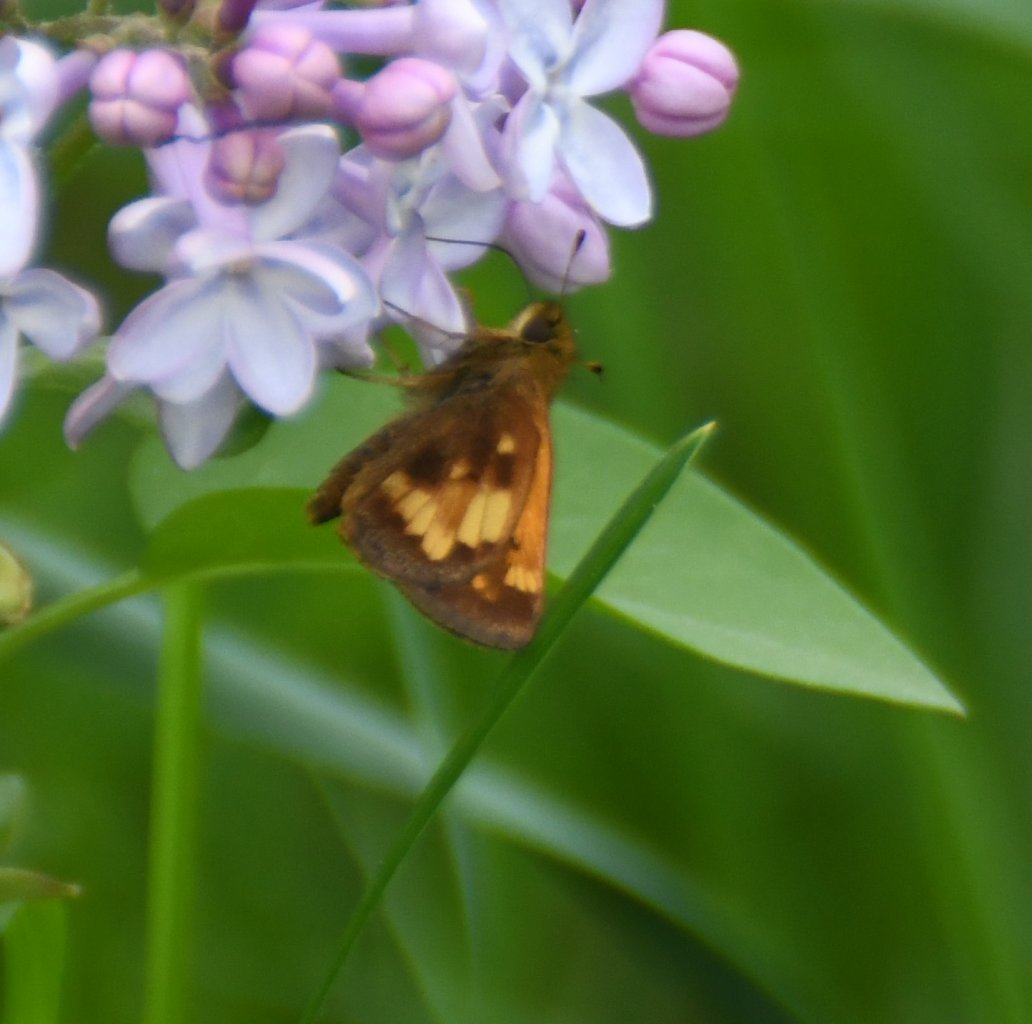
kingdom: Animalia
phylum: Arthropoda
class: Insecta
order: Lepidoptera
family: Hesperiidae
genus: Lon
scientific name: Lon hobomok
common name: Hobomok Skipper
